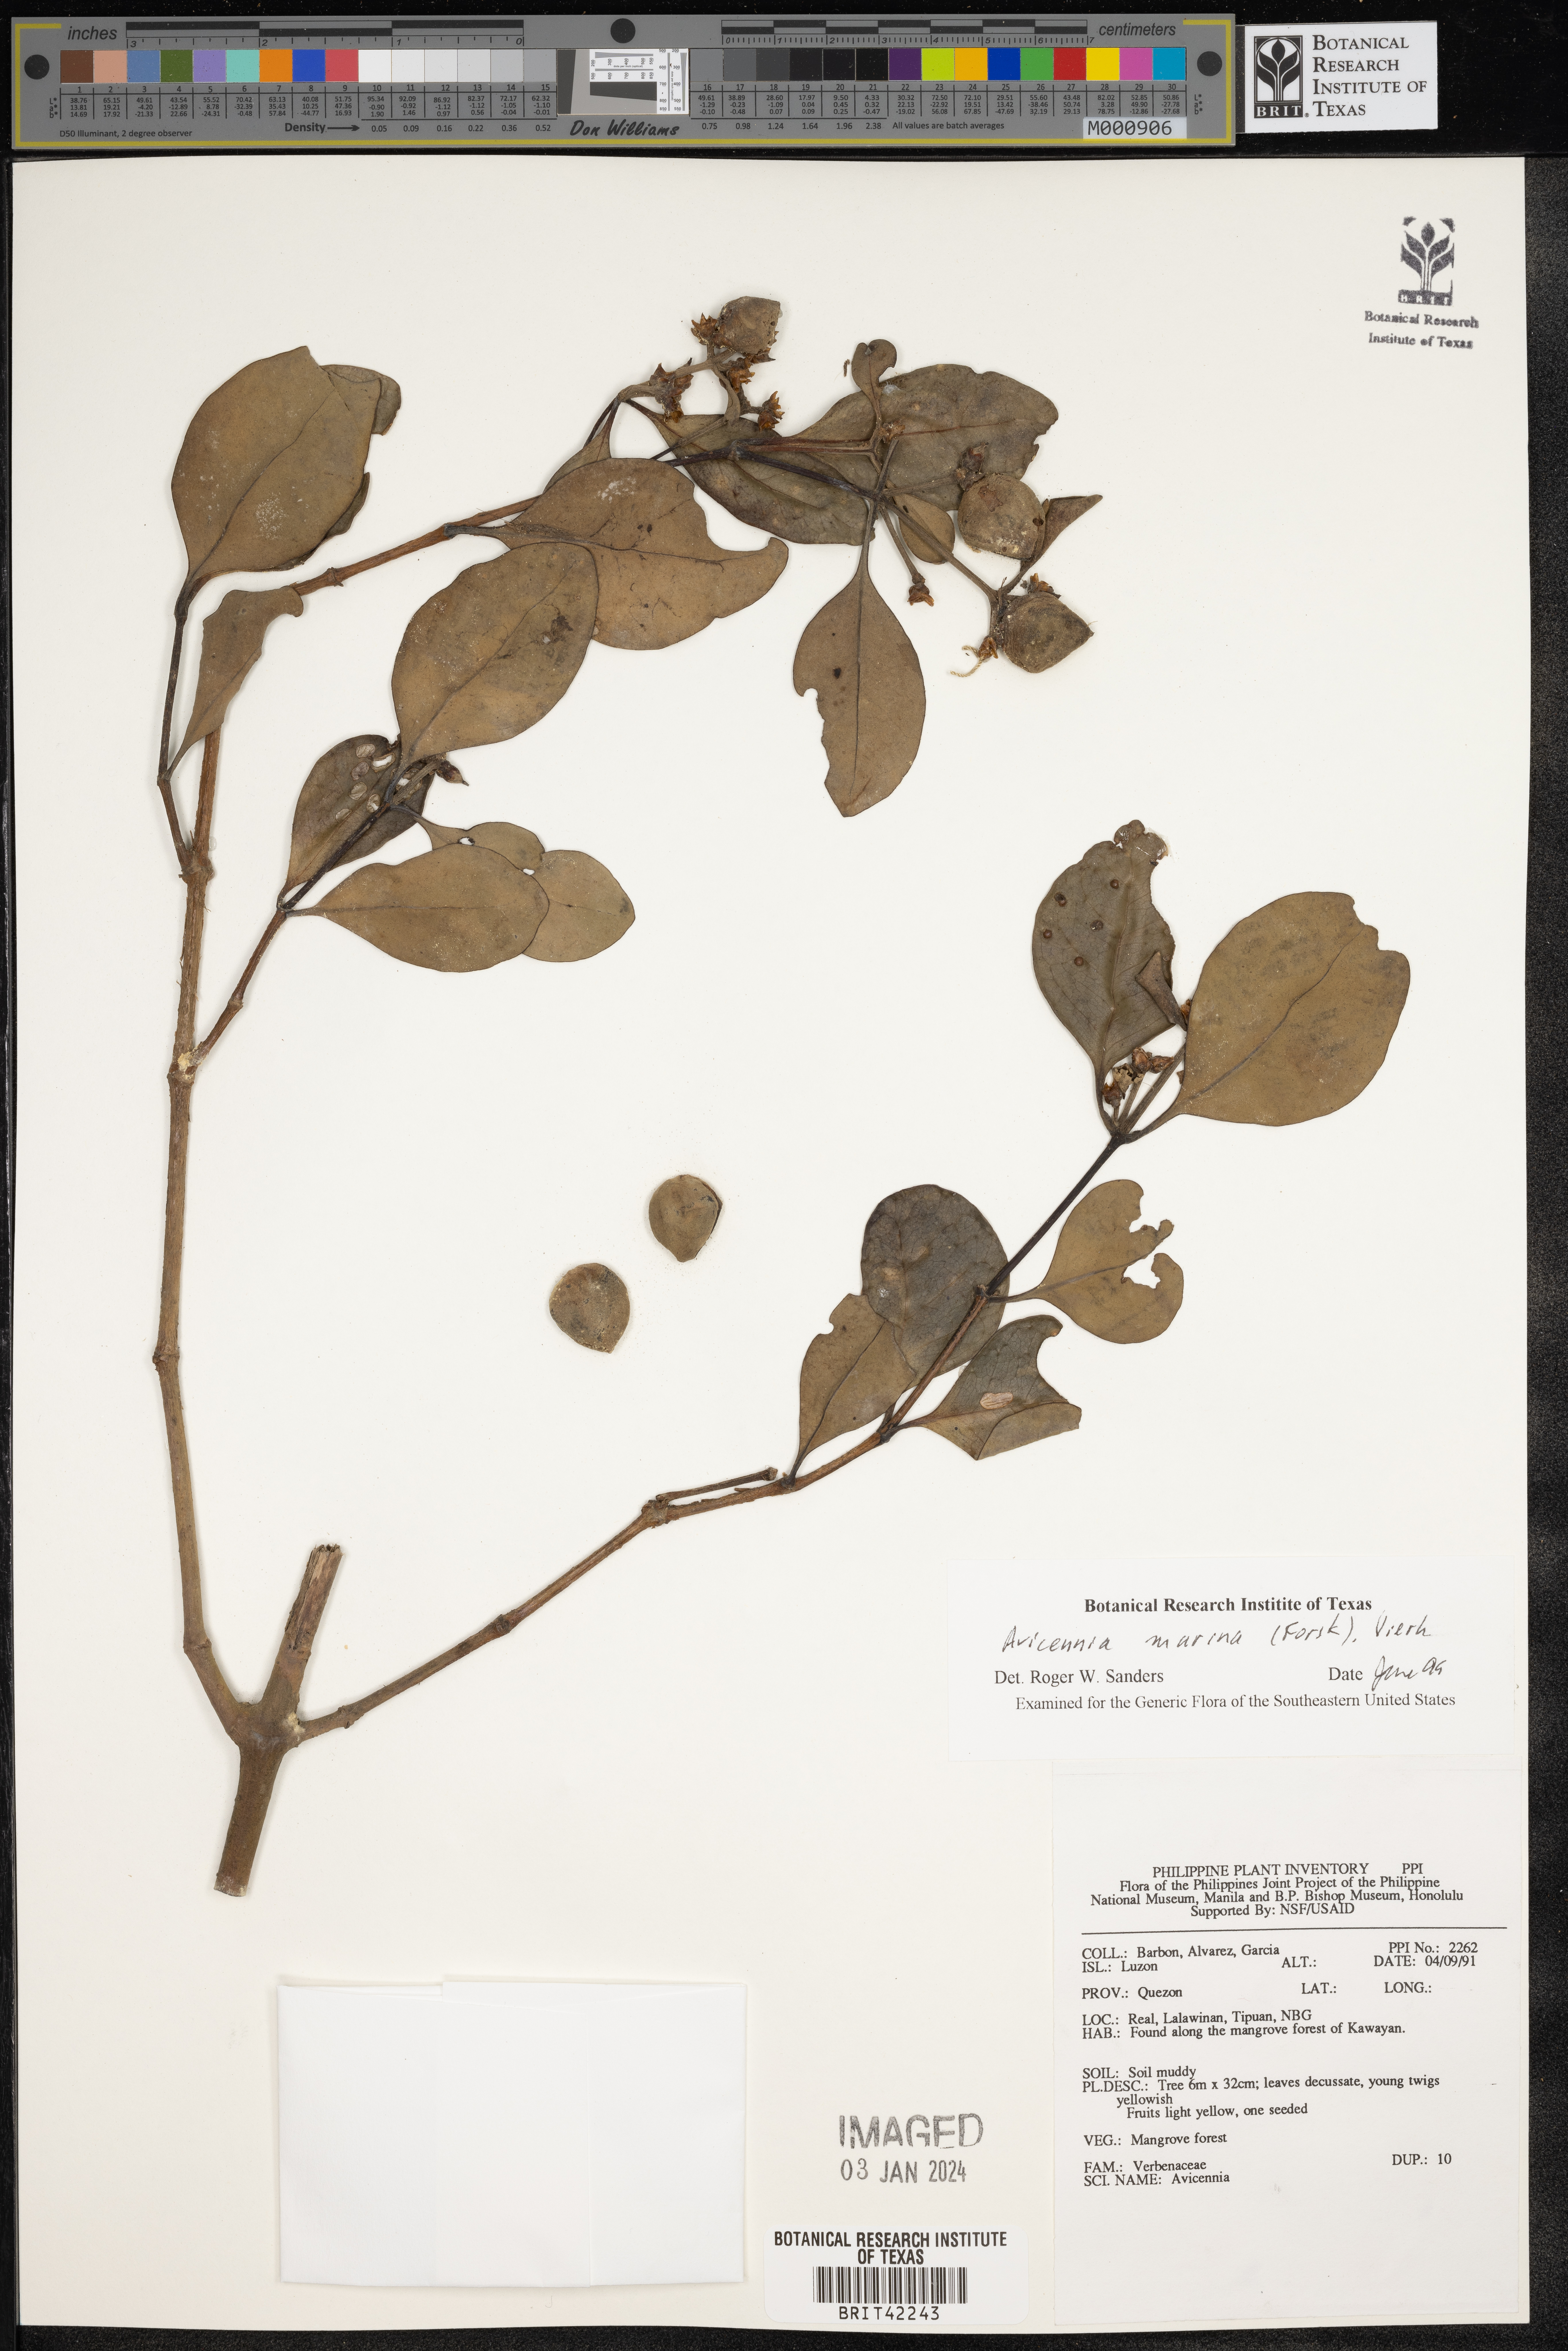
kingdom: Plantae
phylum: Tracheophyta
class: Magnoliopsida
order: Lamiales
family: Acanthaceae
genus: Avicennia
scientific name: Avicennia marina
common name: Gray mangrove
